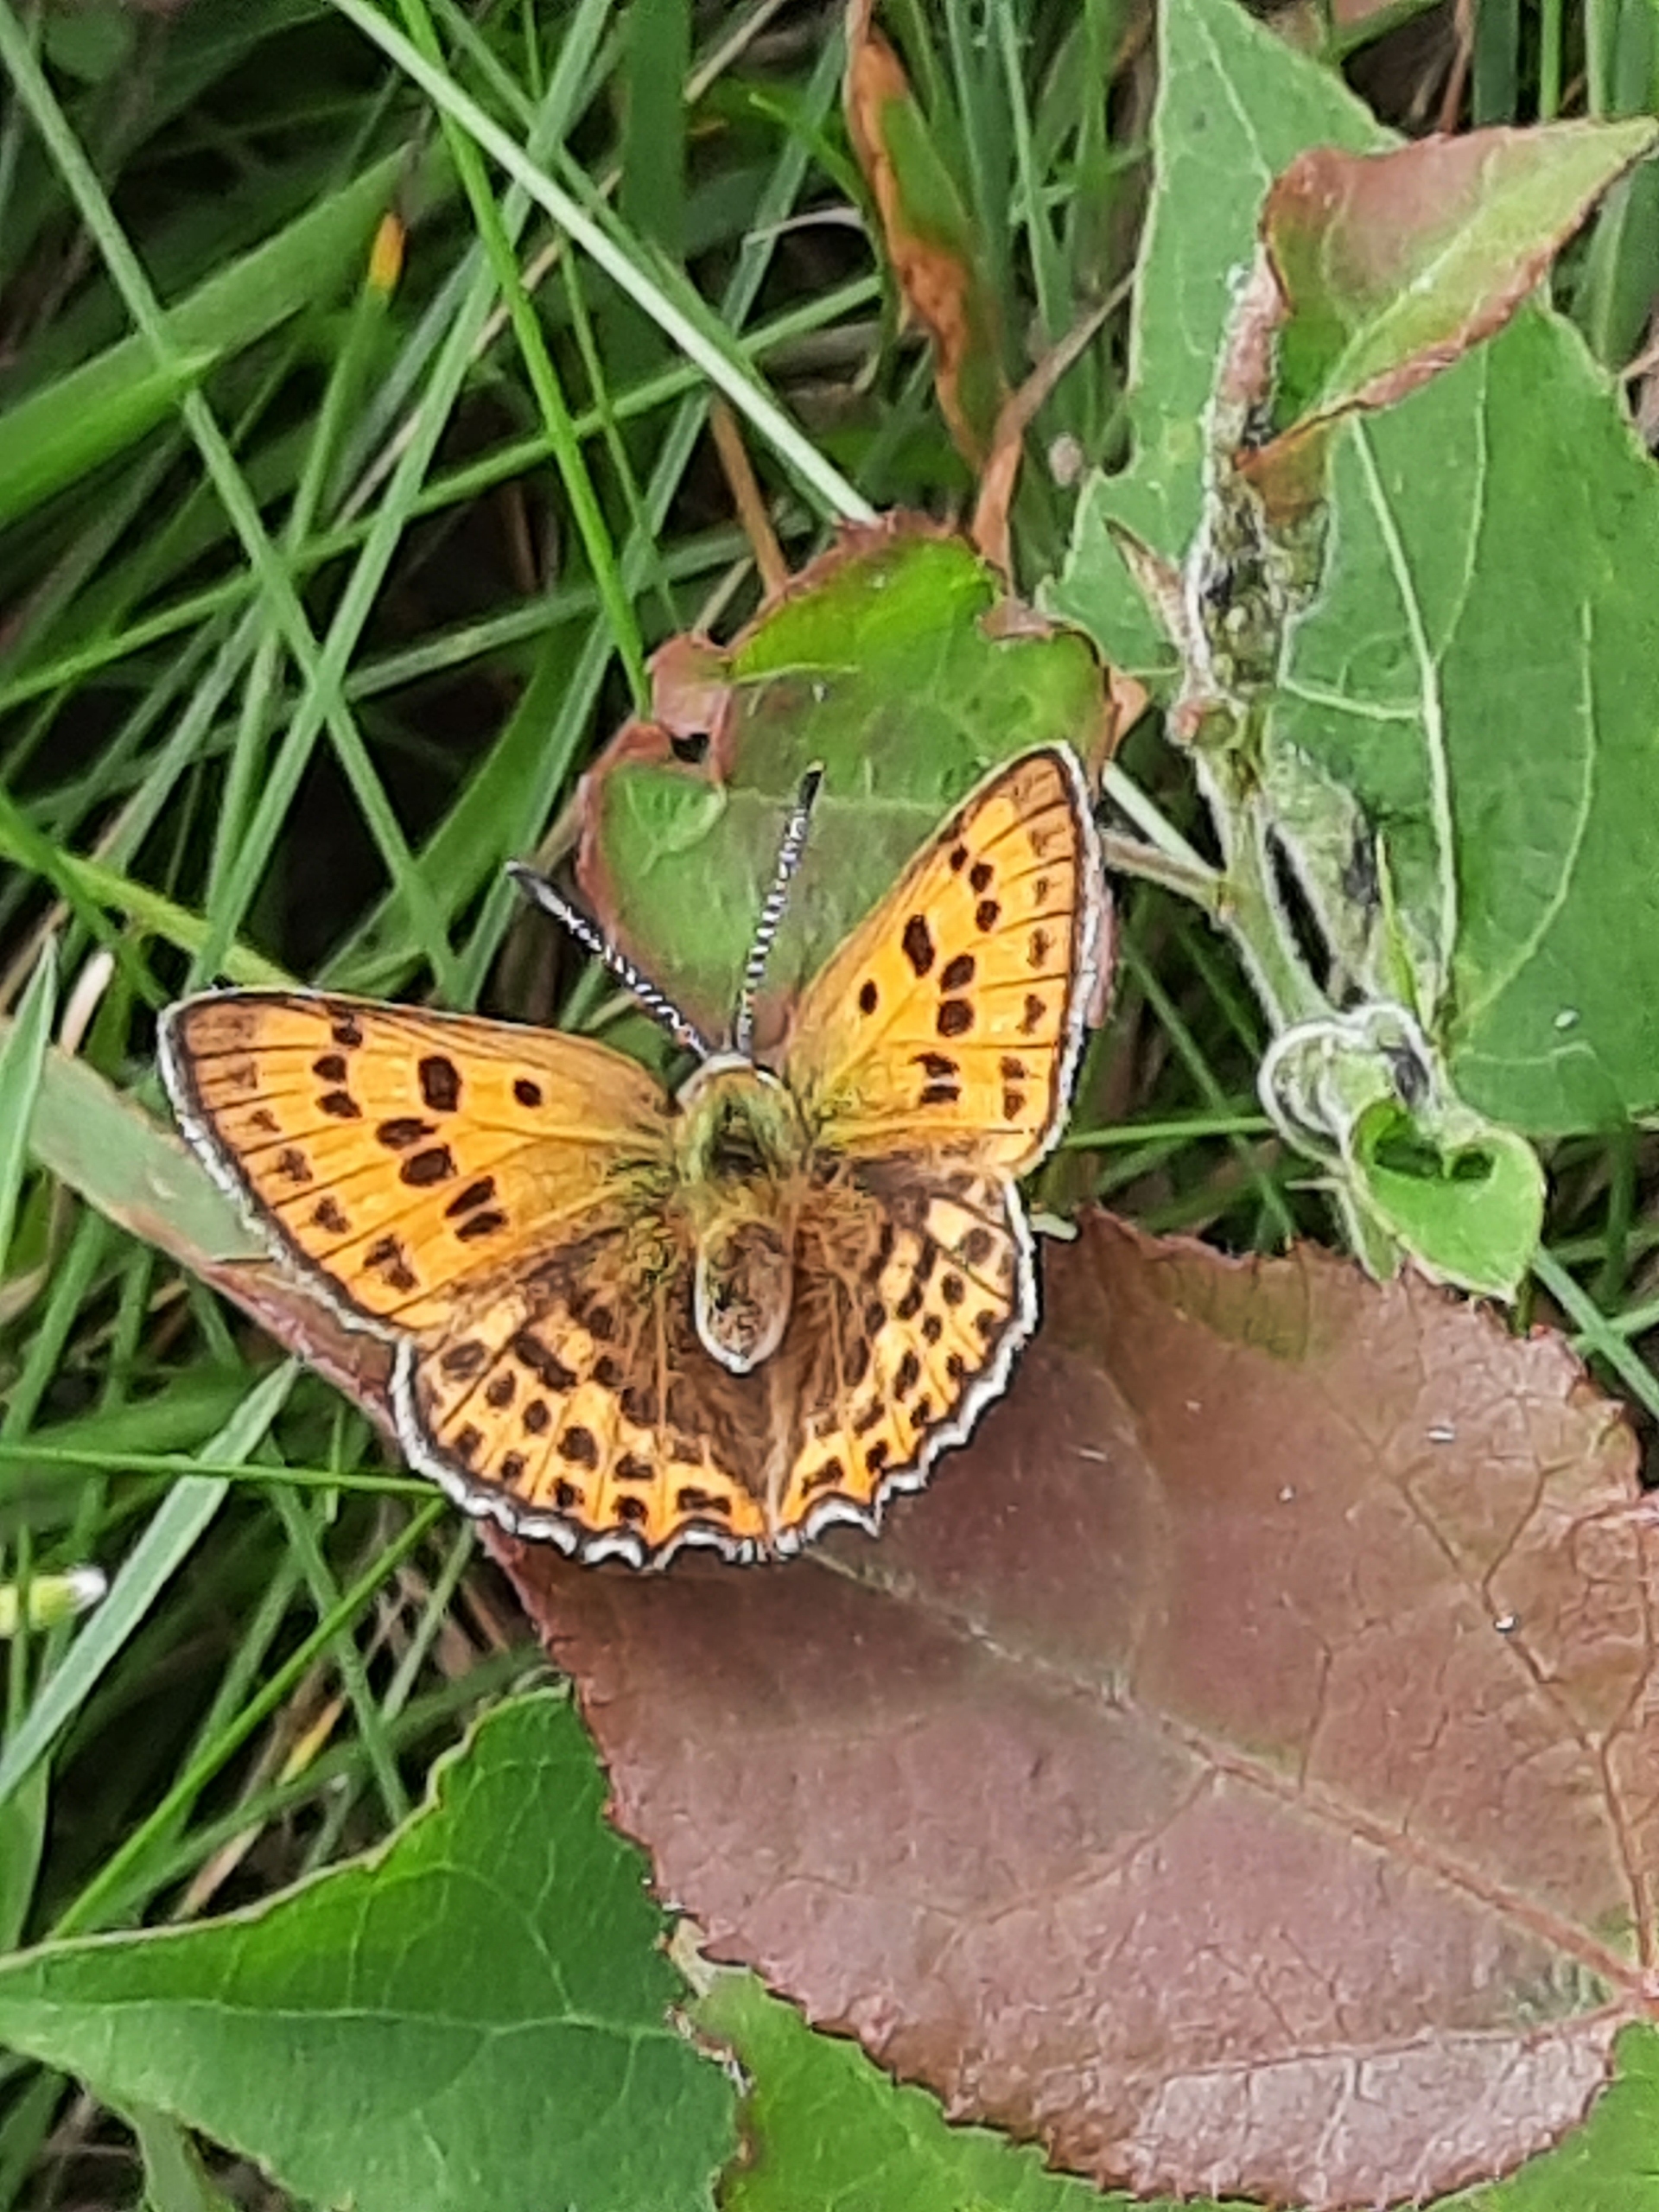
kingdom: Animalia
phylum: Arthropoda
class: Insecta
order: Lepidoptera
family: Lycaenidae
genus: Lycaena
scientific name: Lycaena virgaureae
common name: Dukatsommerfugl
